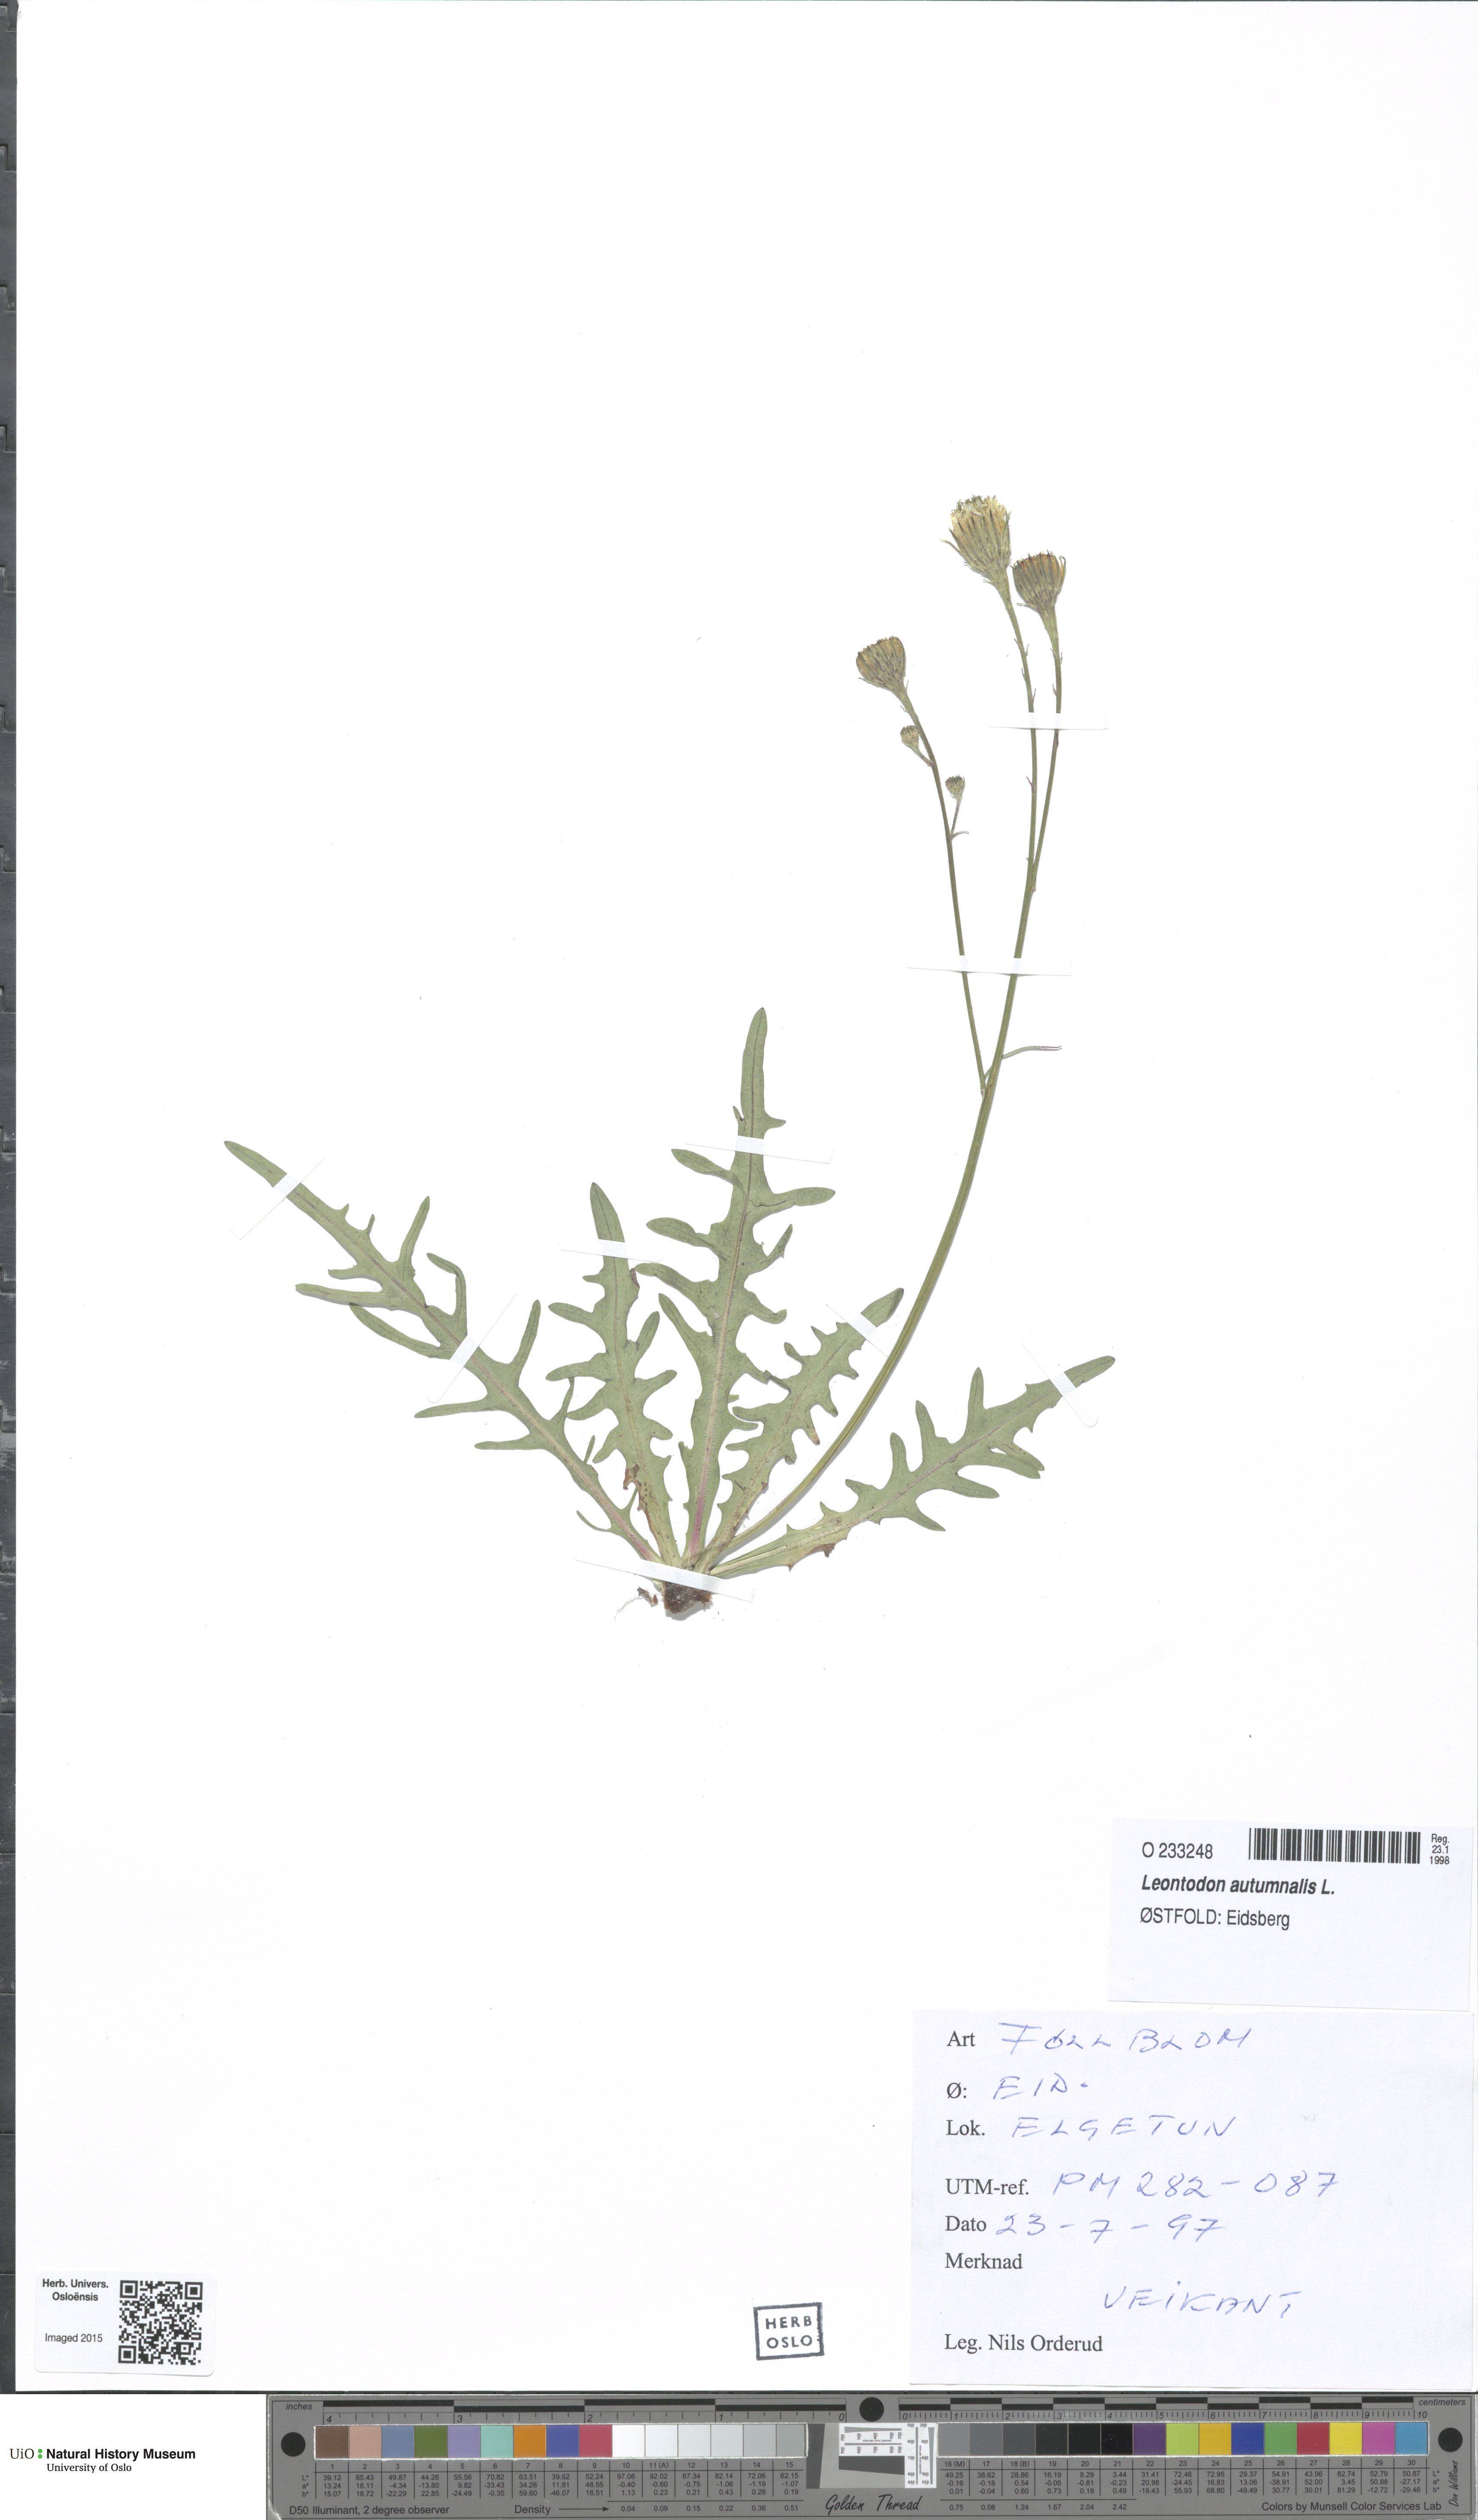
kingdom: Plantae
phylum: Tracheophyta
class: Magnoliopsida
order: Asterales
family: Asteraceae
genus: Scorzoneroides
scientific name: Scorzoneroides autumnalis
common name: Autumn hawkbit
